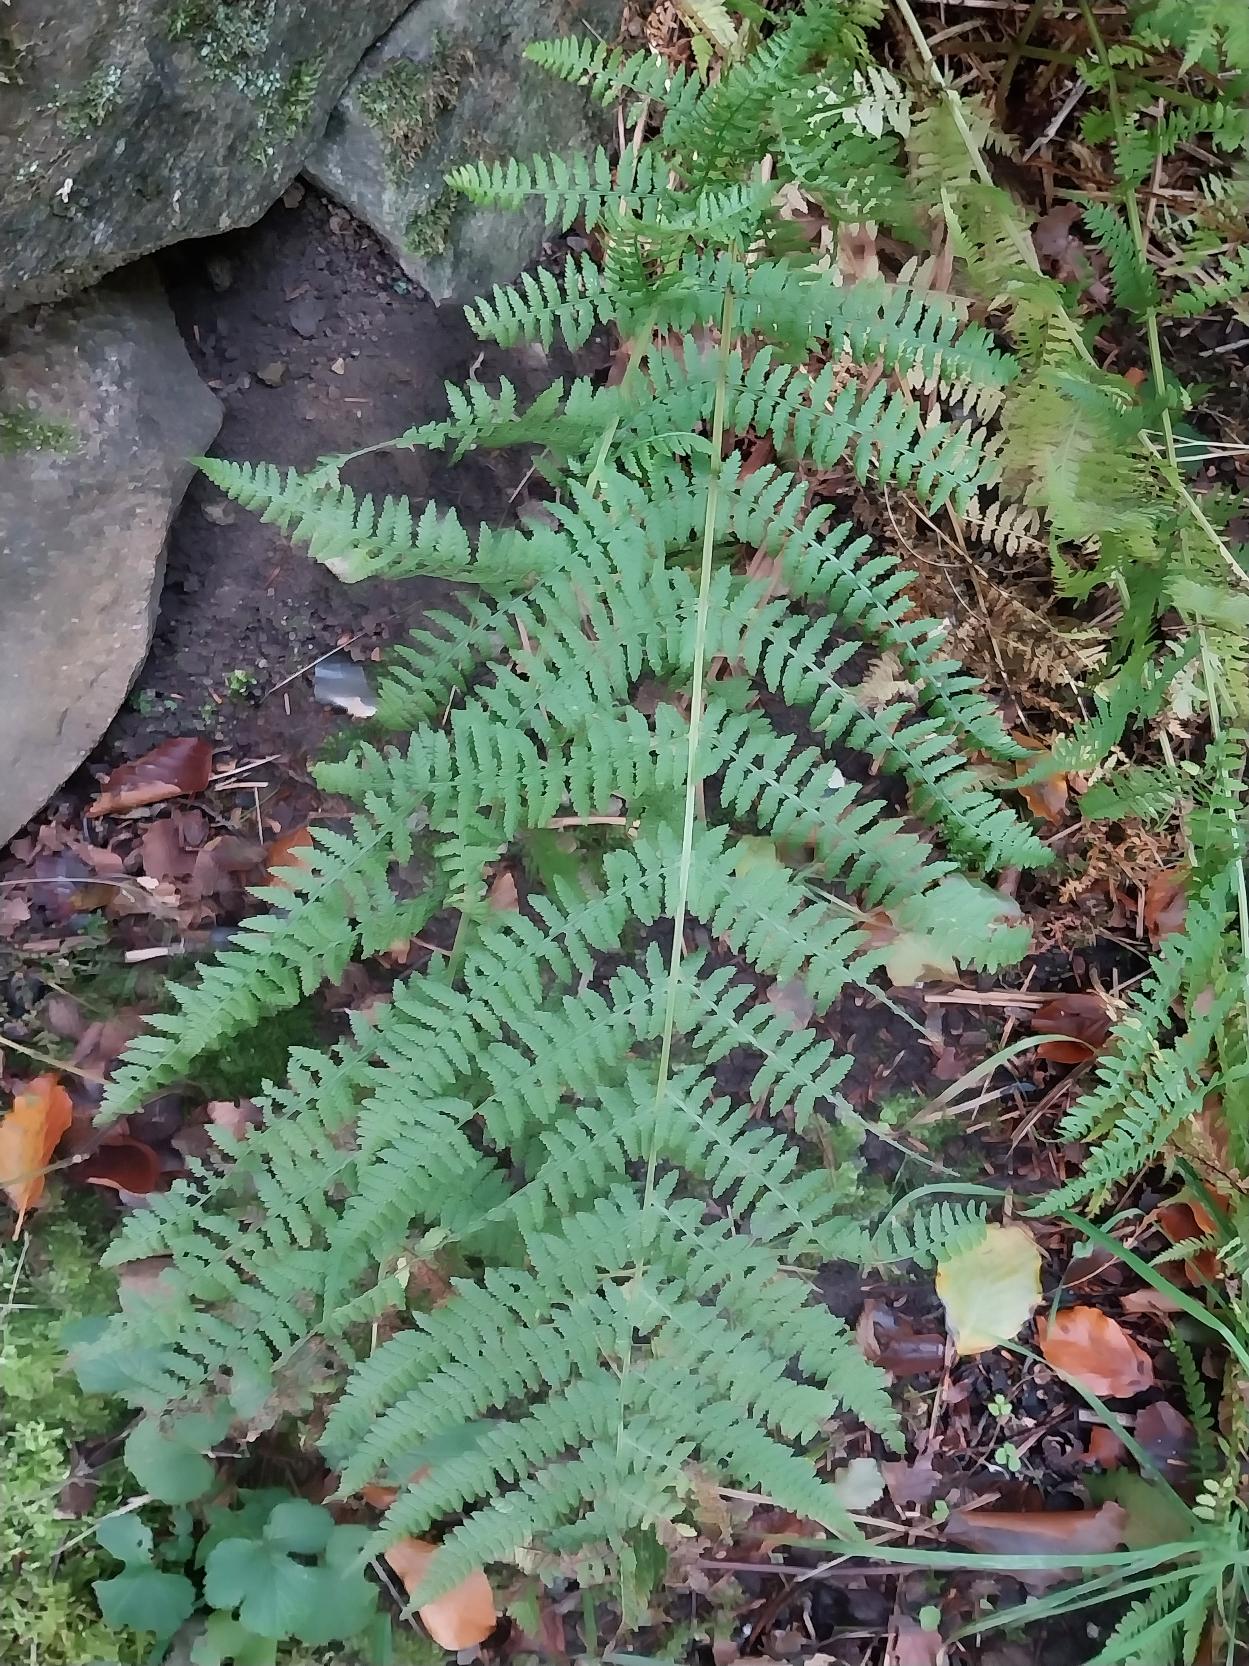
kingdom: Plantae
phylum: Tracheophyta
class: Polypodiopsida
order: Polypodiales
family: Athyriaceae
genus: Athyrium
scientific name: Athyrium filix-femina
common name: Fjerbregne
